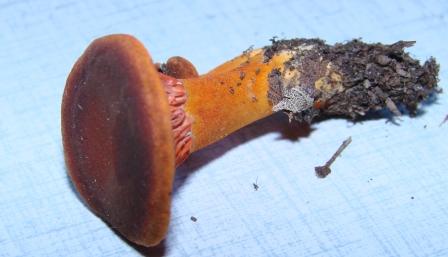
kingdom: Fungi
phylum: Basidiomycota
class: Agaricomycetes
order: Boletales
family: Hygrophoropsidaceae
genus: Hygrophoropsis
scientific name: Hygrophoropsis rufa
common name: brunfiltet orangekantarel
